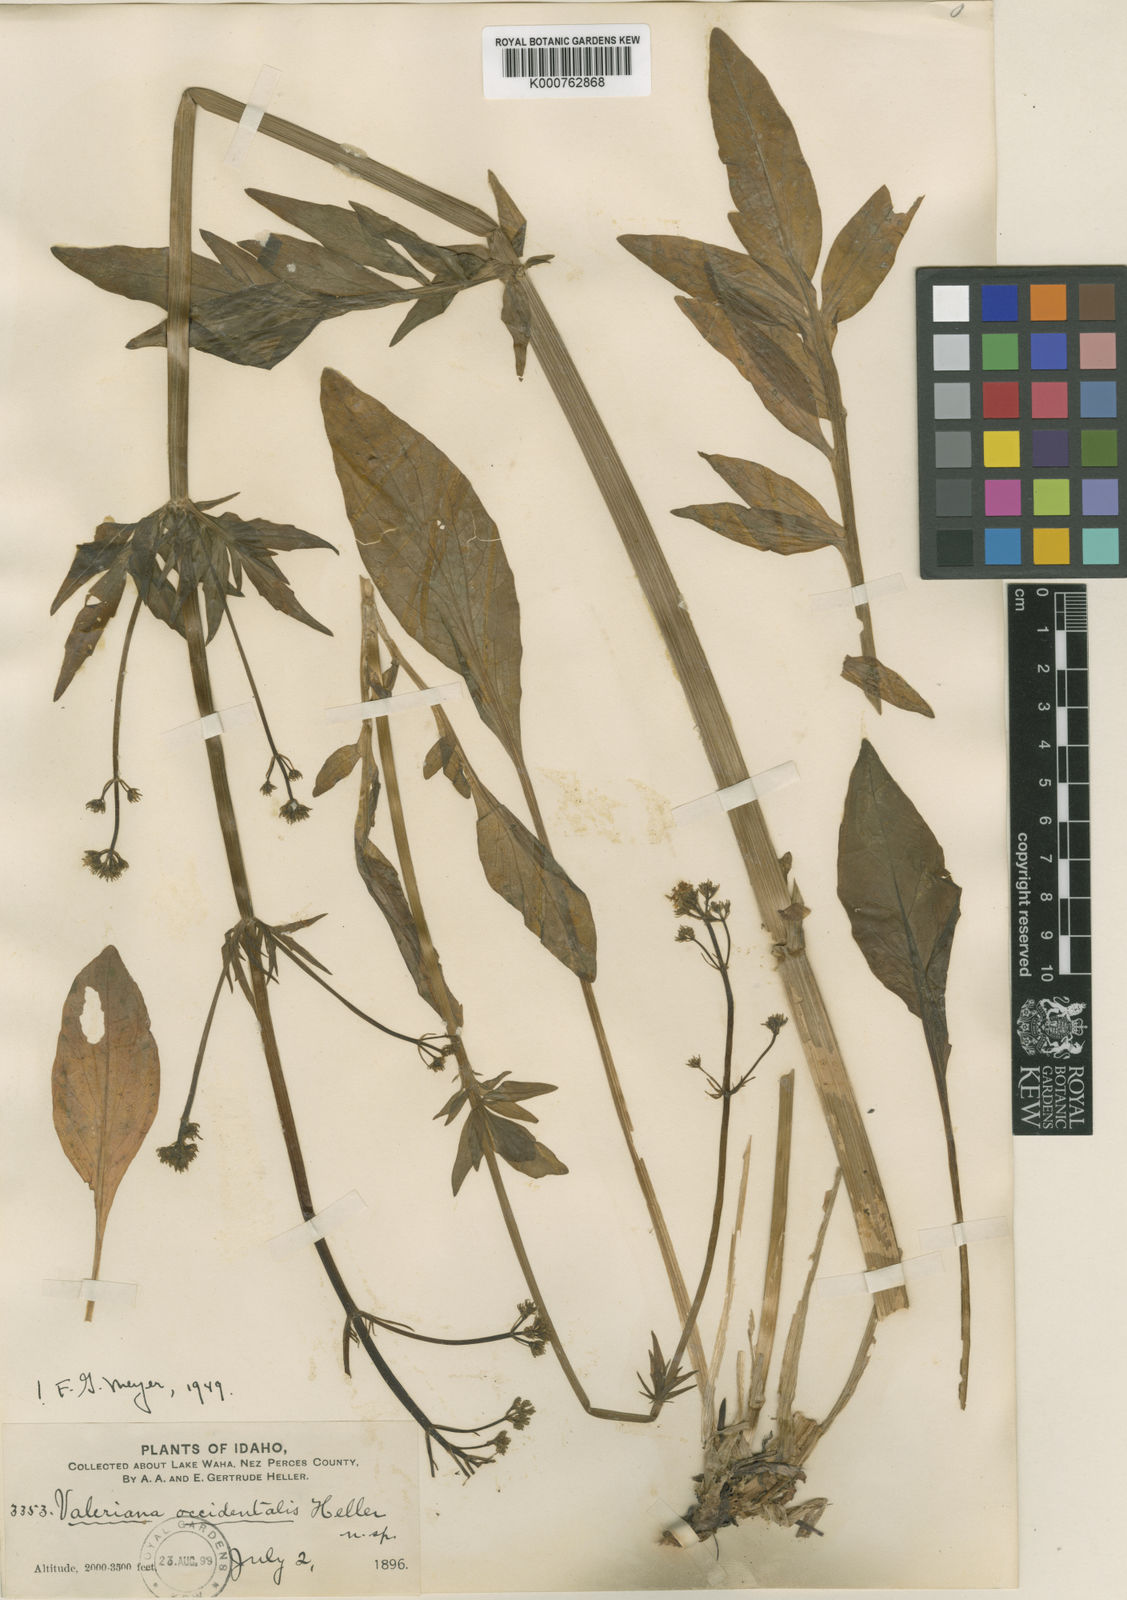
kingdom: Plantae
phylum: Tracheophyta
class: Magnoliopsida
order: Dipsacales
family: Caprifoliaceae
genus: Valeriana
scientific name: Valeriana occidentalis
